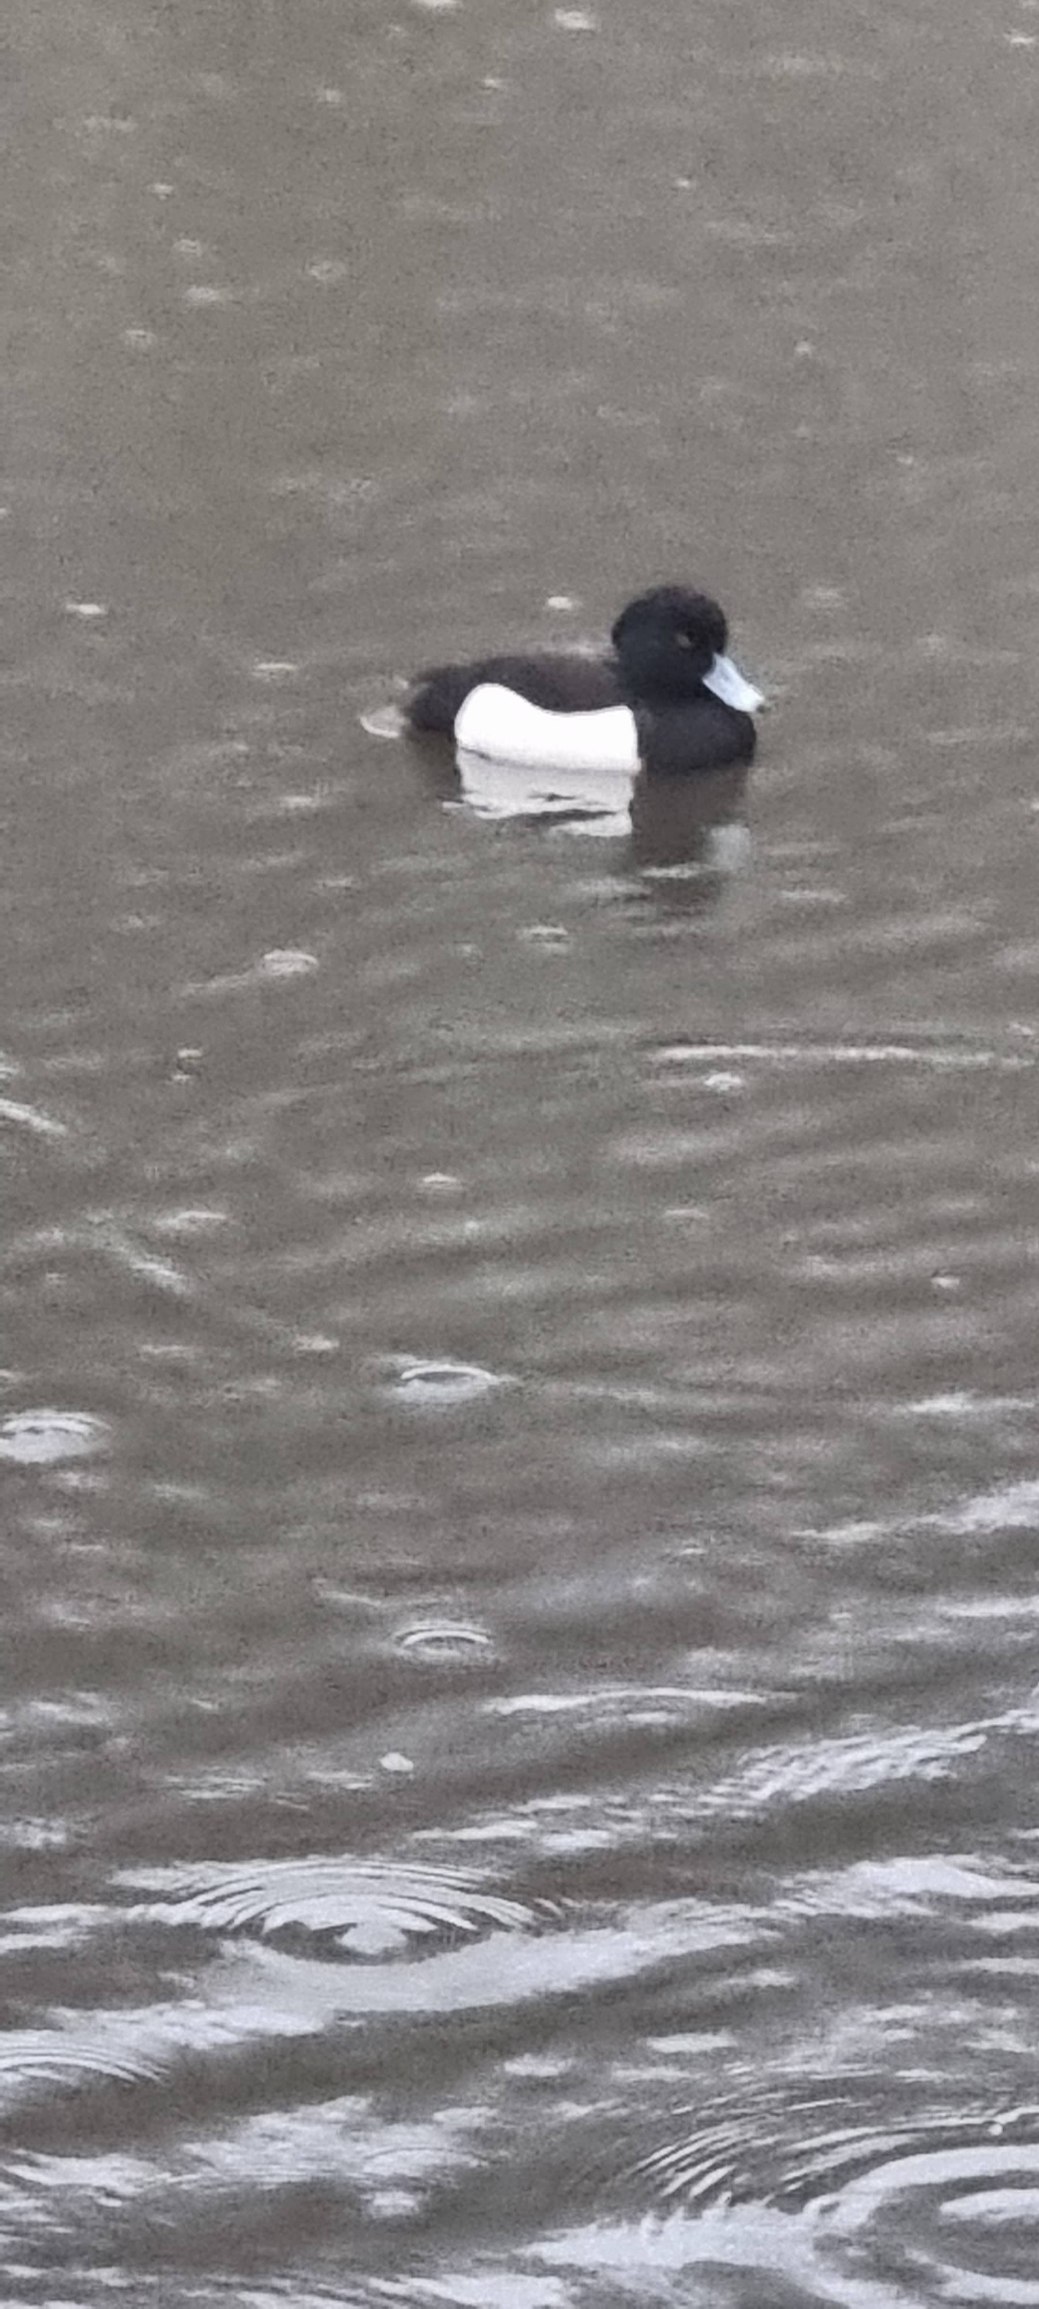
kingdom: Animalia
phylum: Chordata
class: Aves
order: Anseriformes
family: Anatidae
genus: Aythya
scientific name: Aythya fuligula
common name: Troldand
